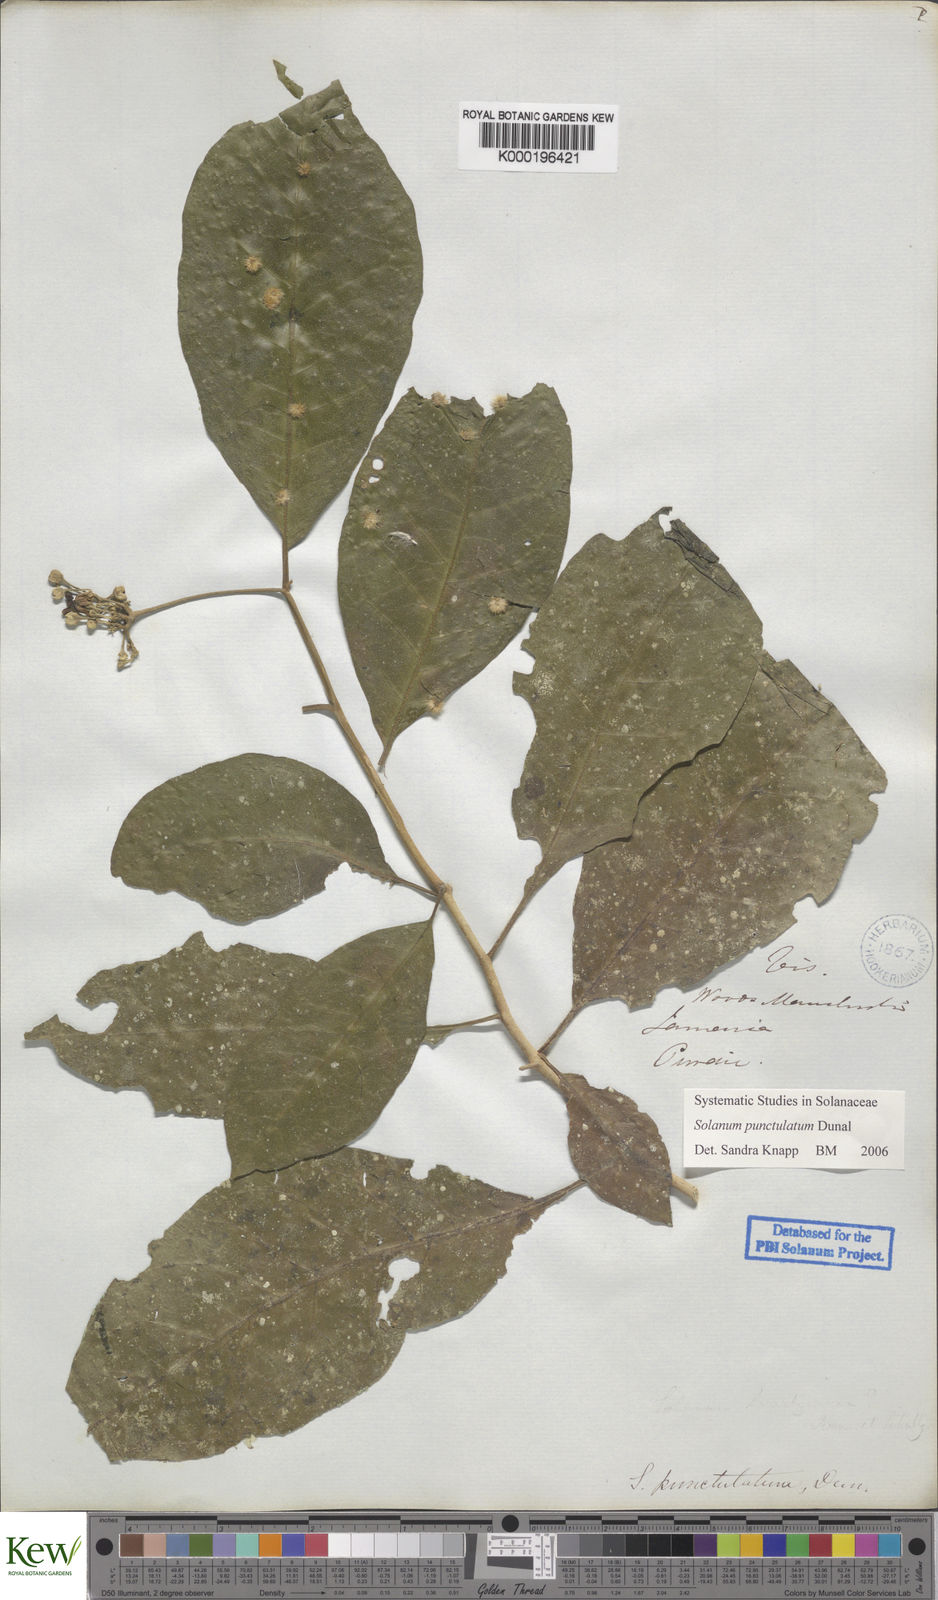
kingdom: Plantae
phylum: Tracheophyta
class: Magnoliopsida
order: Solanales
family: Solanaceae
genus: Solanum
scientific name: Solanum punctulatum
